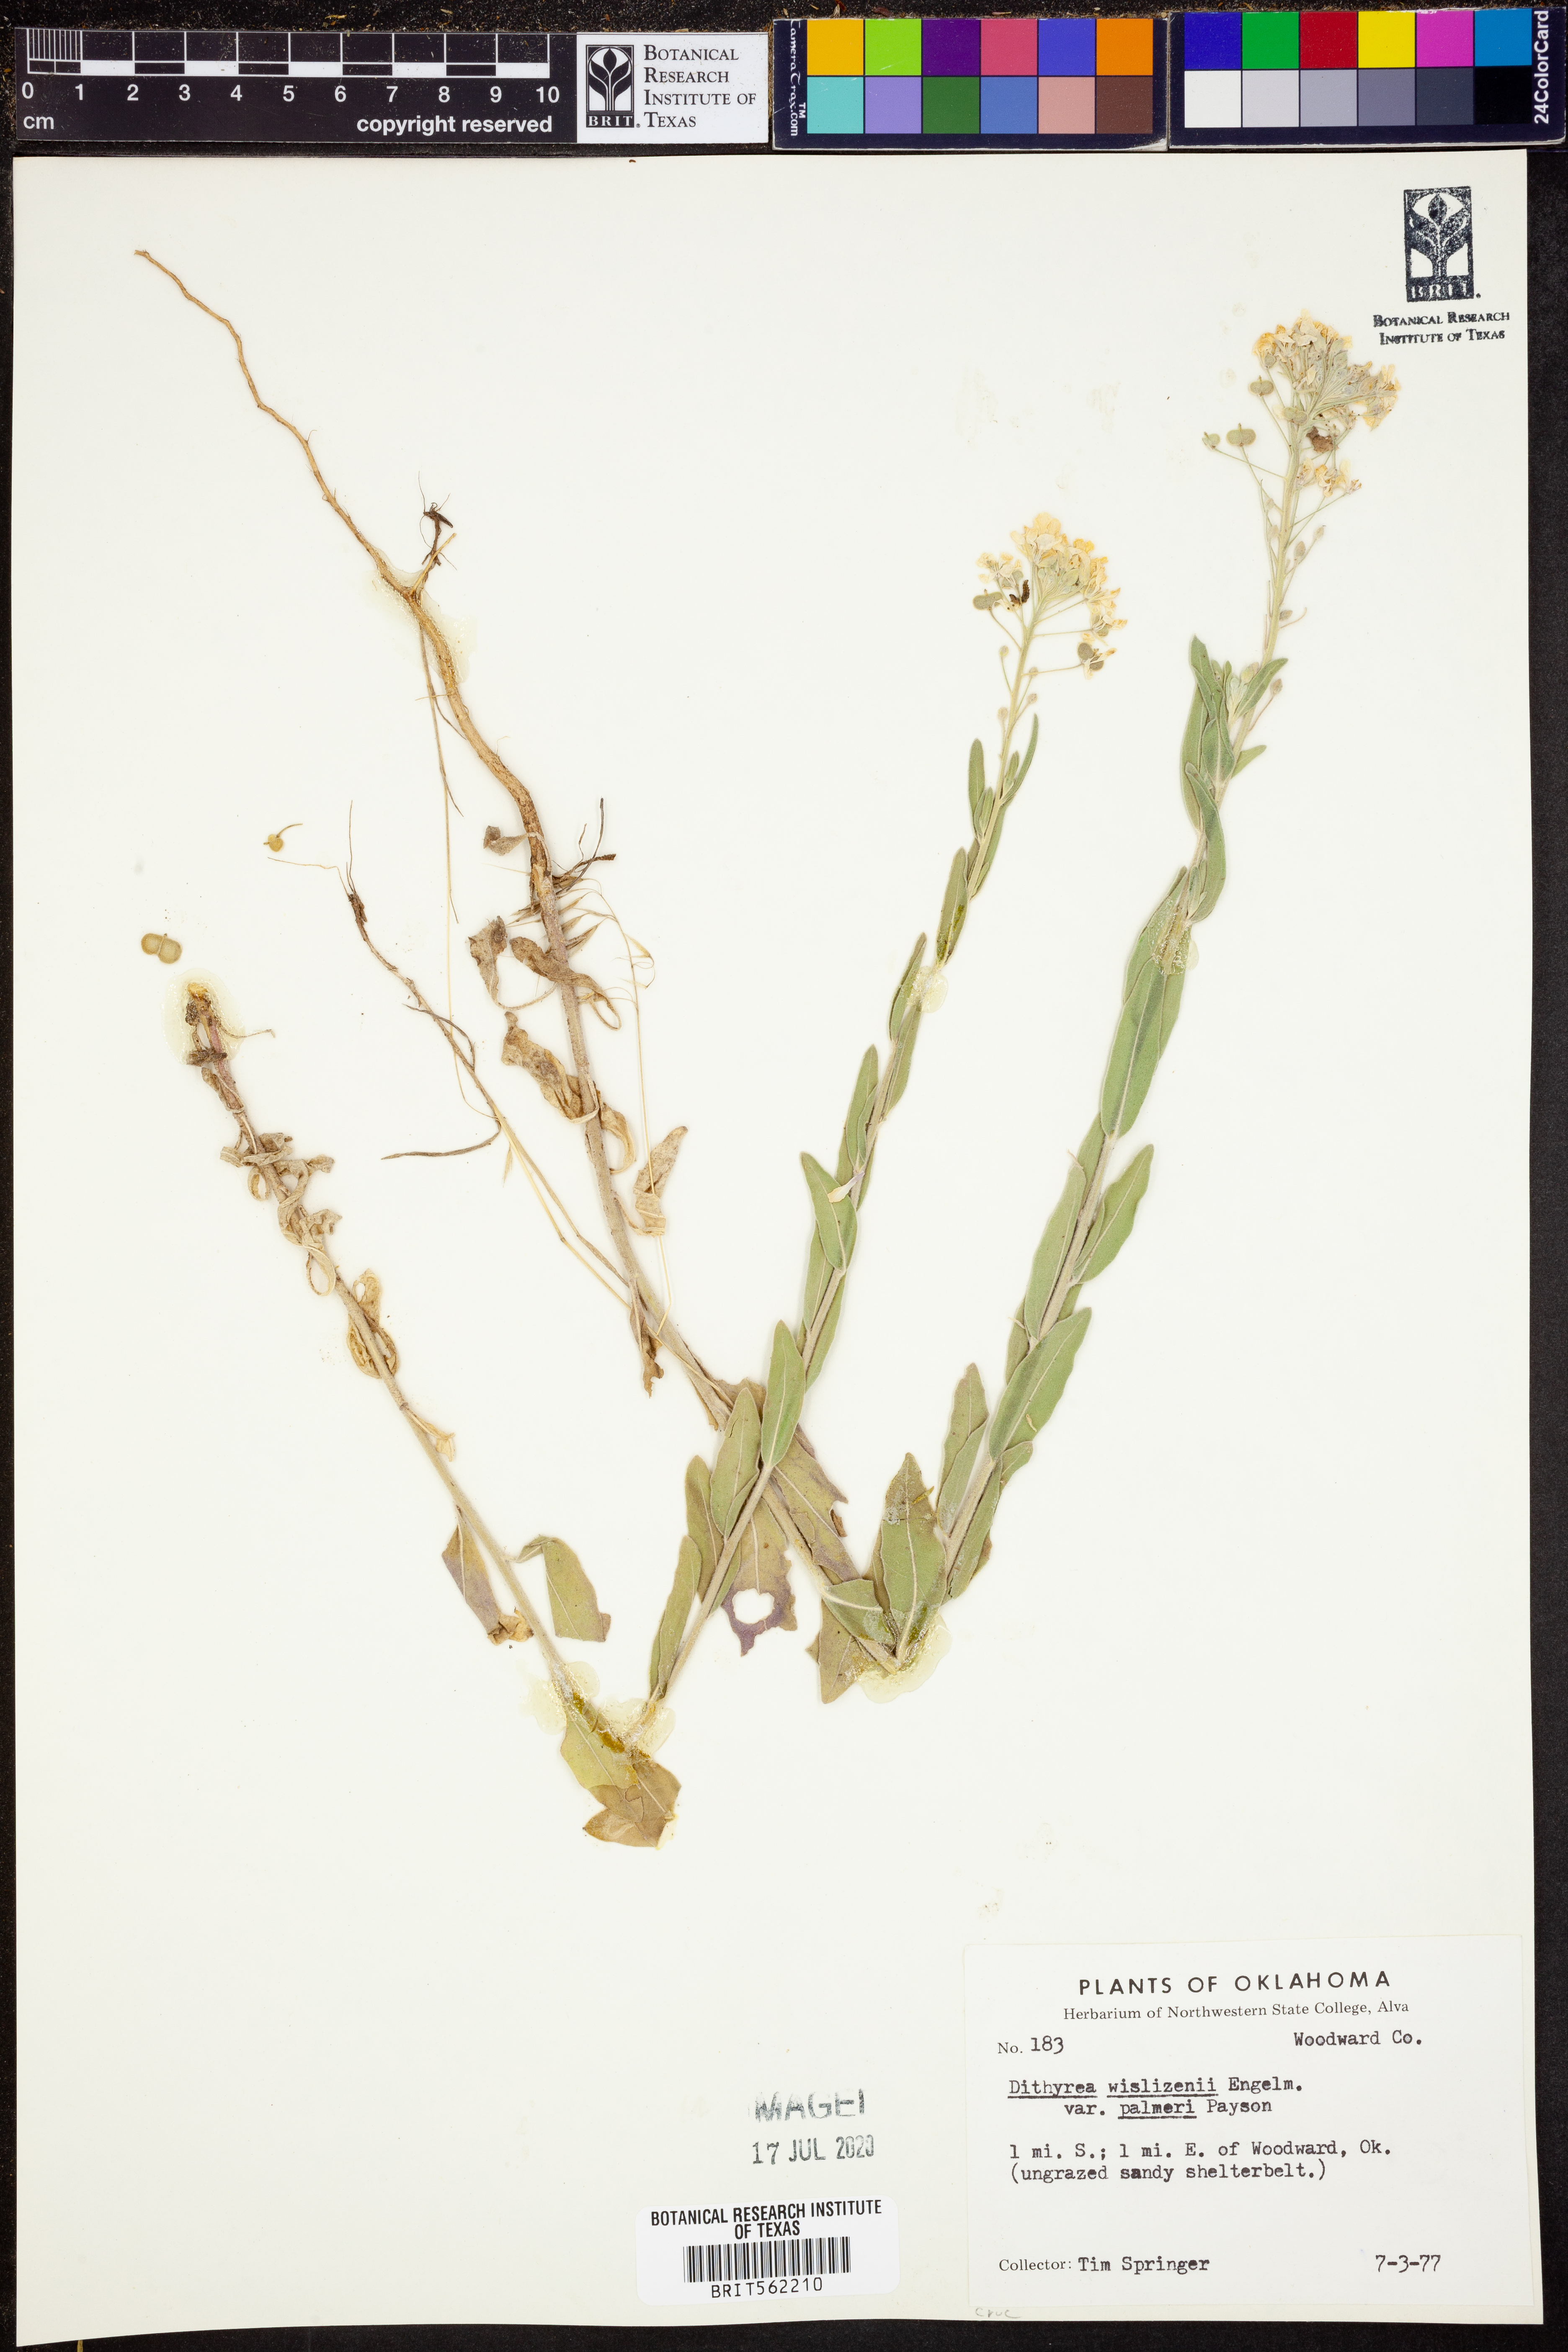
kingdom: Plantae
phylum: Tracheophyta
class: Magnoliopsida
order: Brassicales
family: Brassicaceae
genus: Dimorphocarpa
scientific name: Dimorphocarpa candicans
